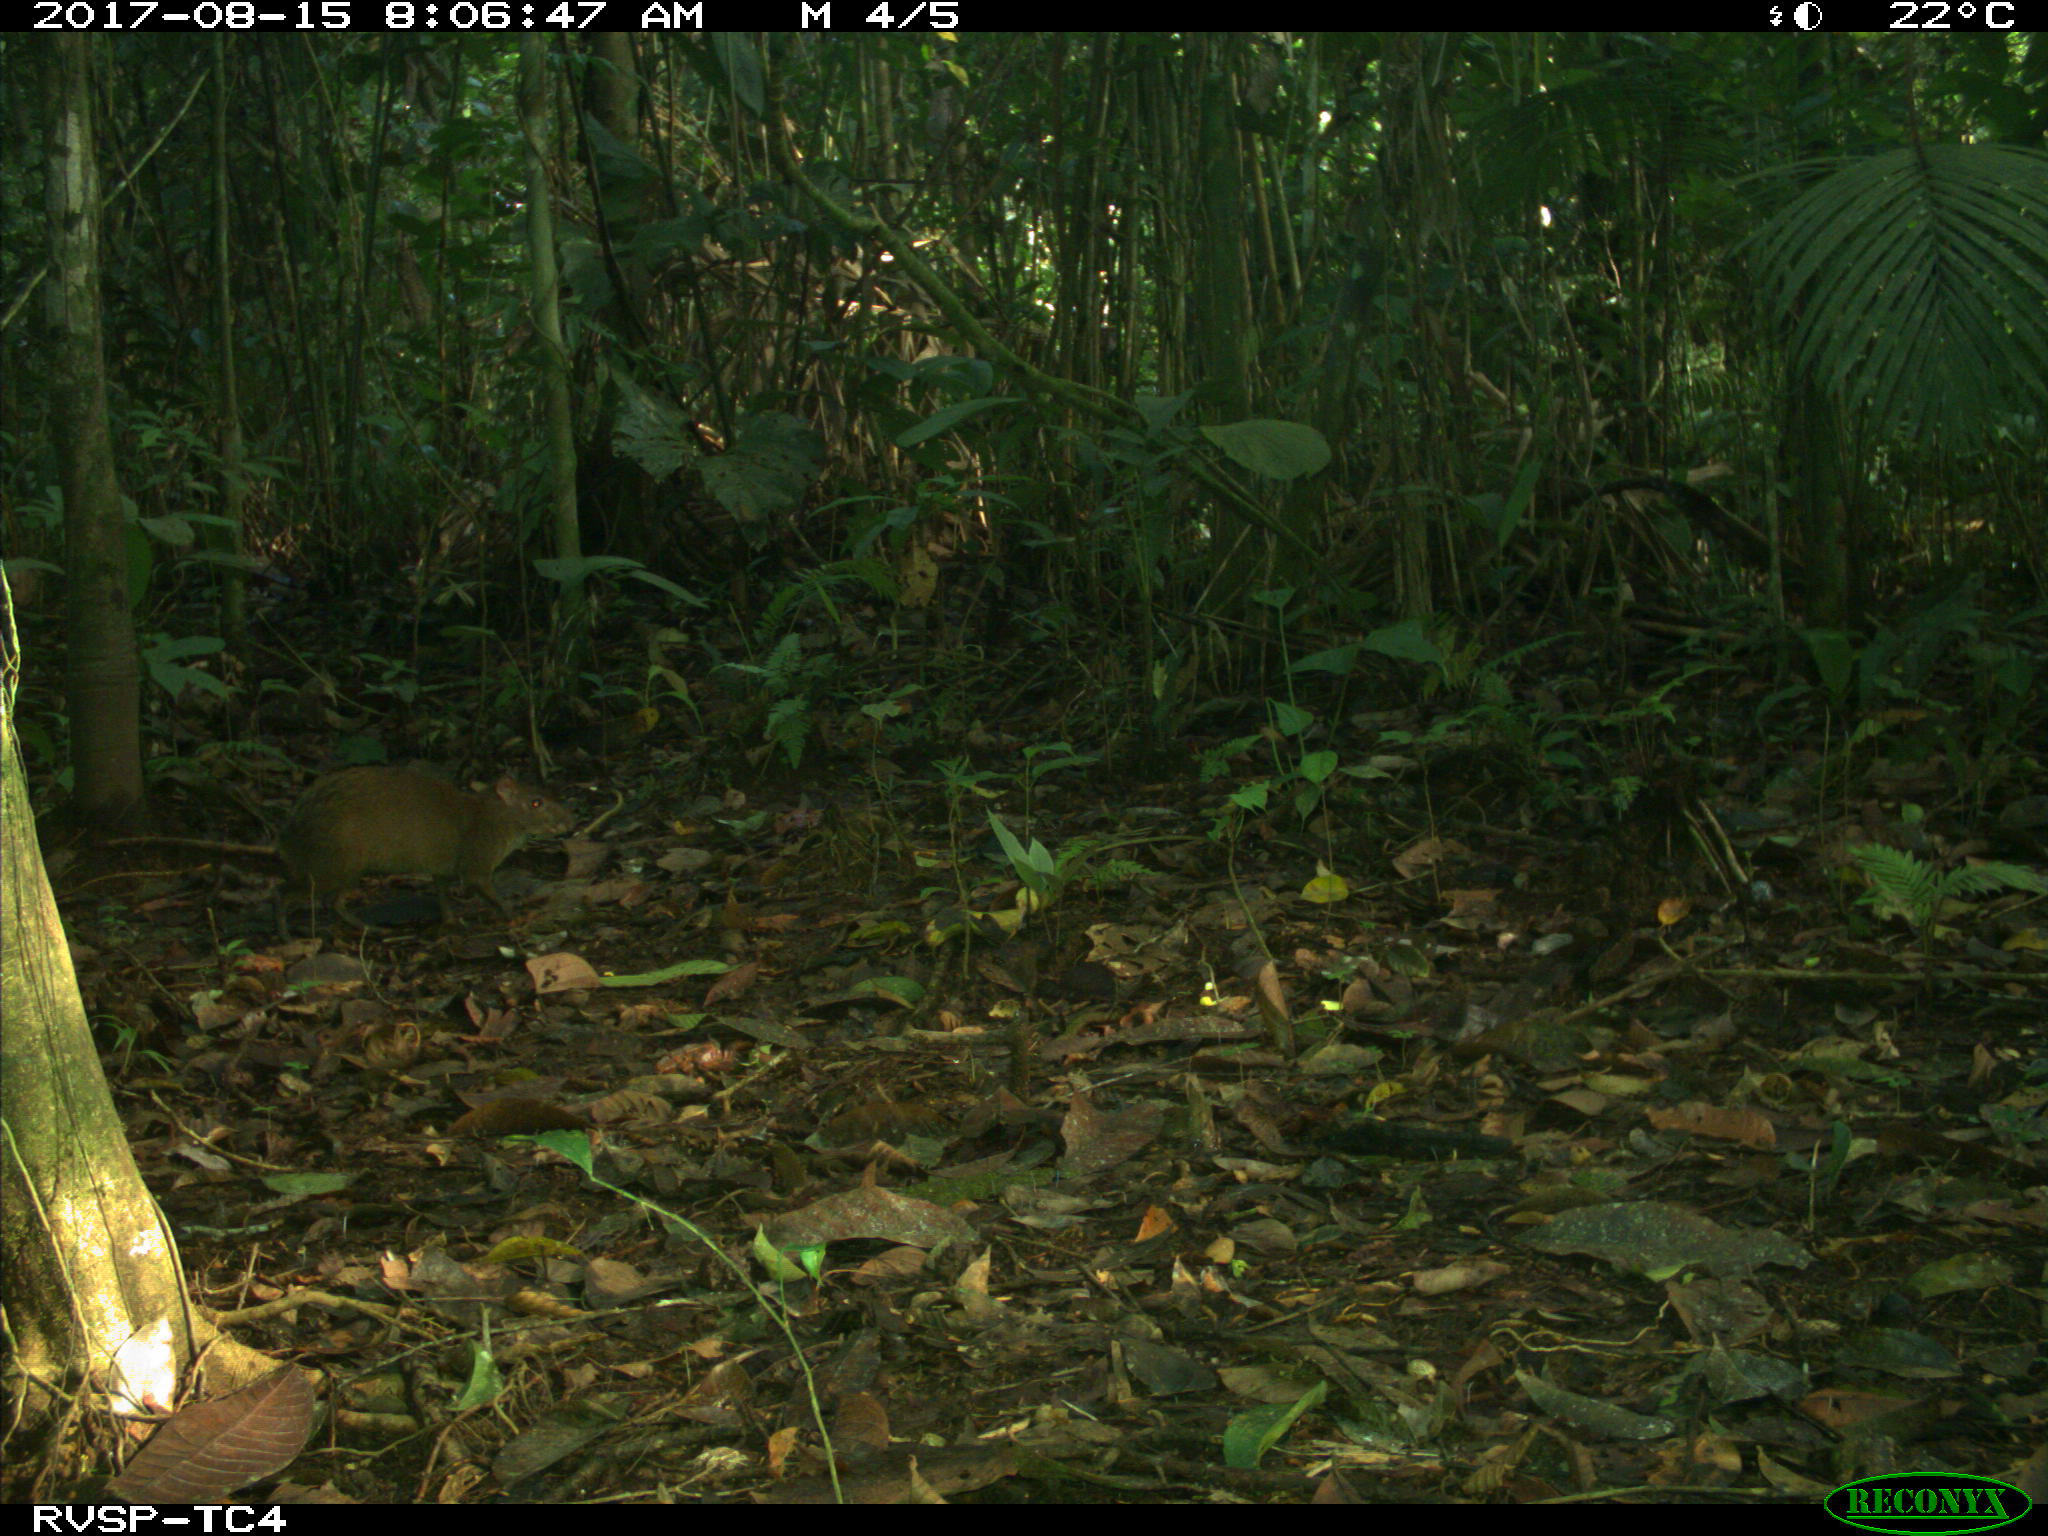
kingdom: Animalia
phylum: Chordata
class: Mammalia
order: Rodentia
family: Dasyproctidae
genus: Dasyprocta
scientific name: Dasyprocta punctata
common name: Central american agouti
